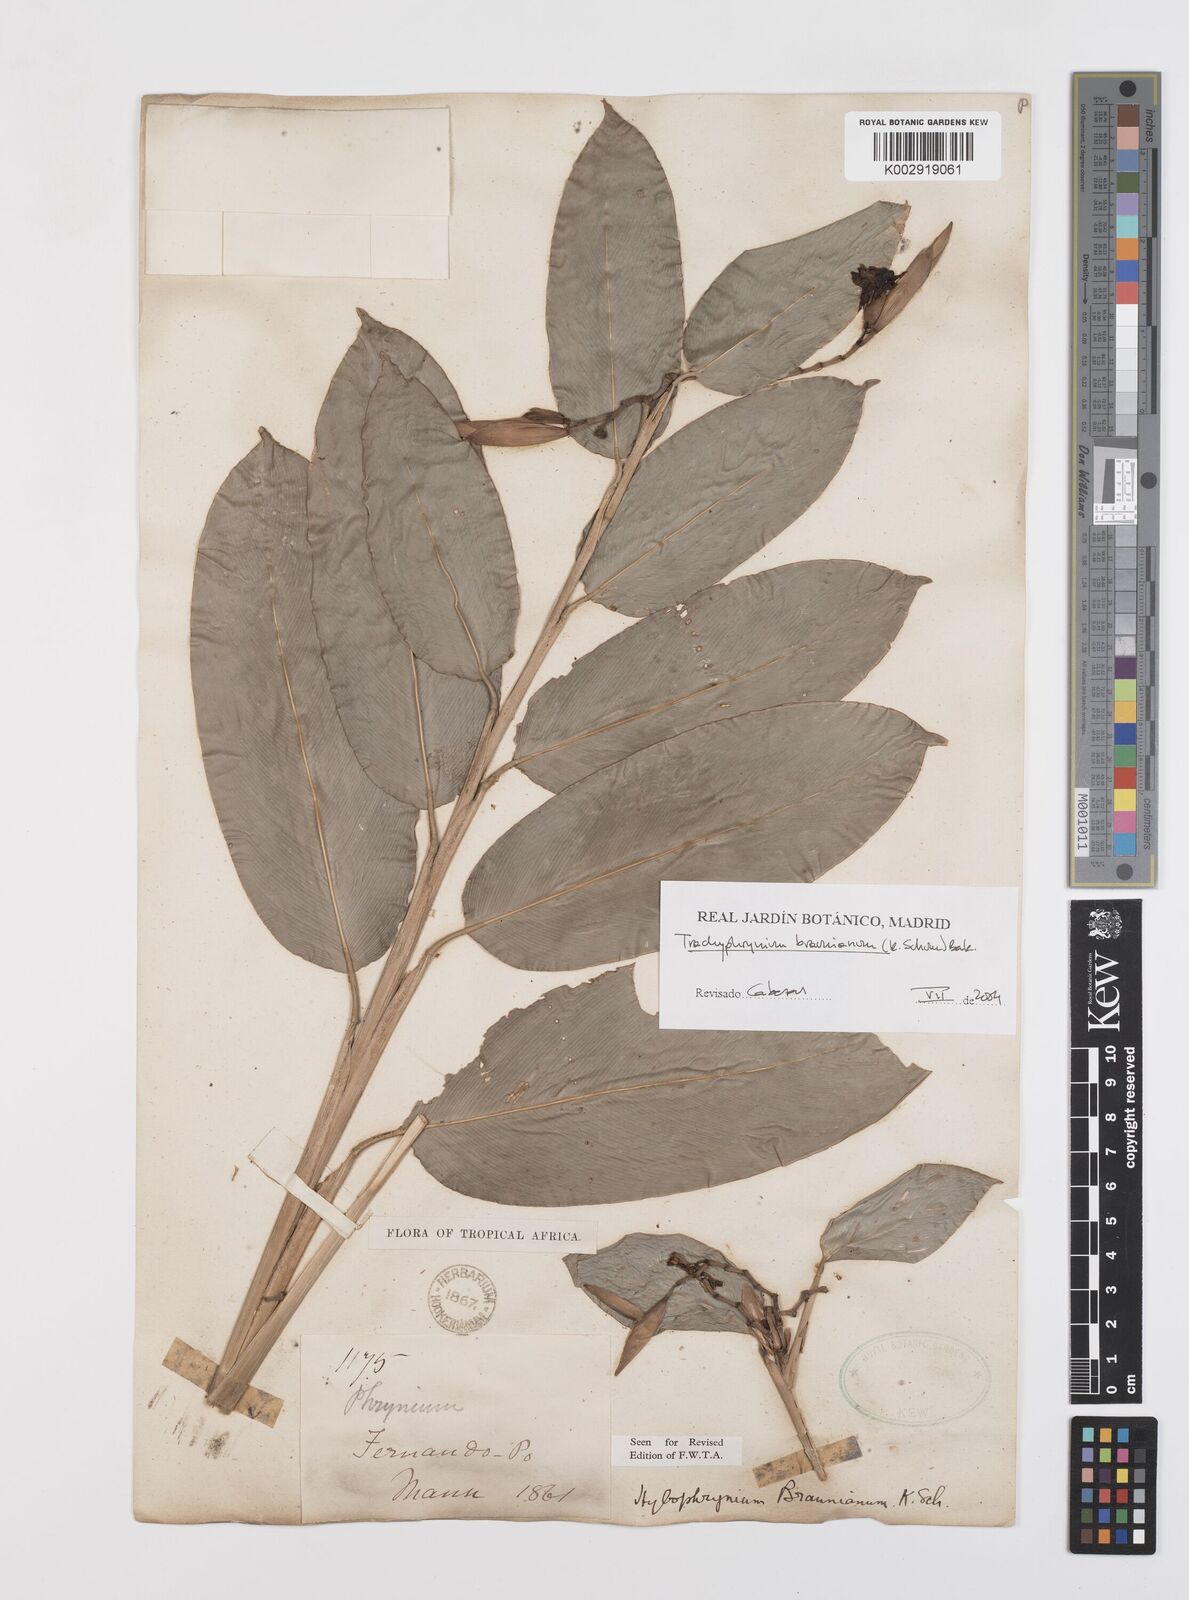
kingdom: Plantae
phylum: Tracheophyta
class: Liliopsida
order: Zingiberales
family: Marantaceae
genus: Trachyphrynium
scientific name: Trachyphrynium braunianum
